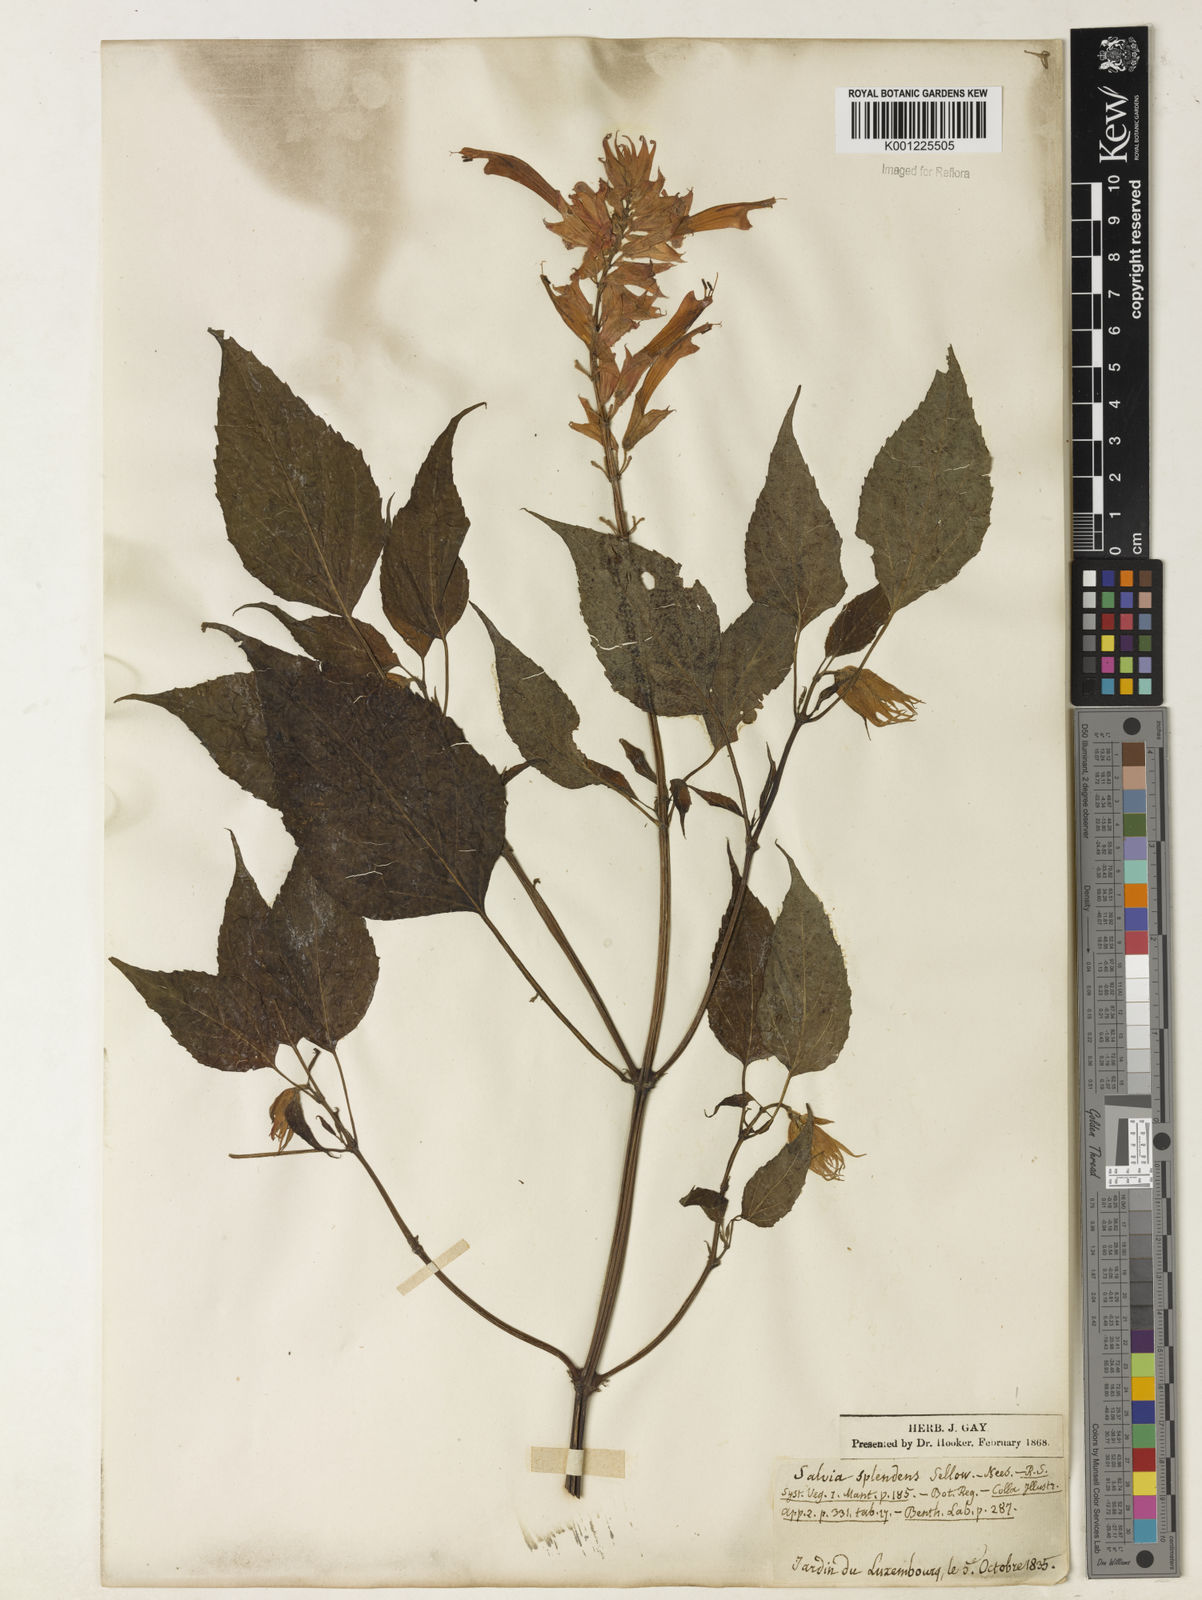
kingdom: Plantae
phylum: Tracheophyta
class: Magnoliopsida
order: Lamiales
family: Lamiaceae
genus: Salvia
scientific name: Salvia
